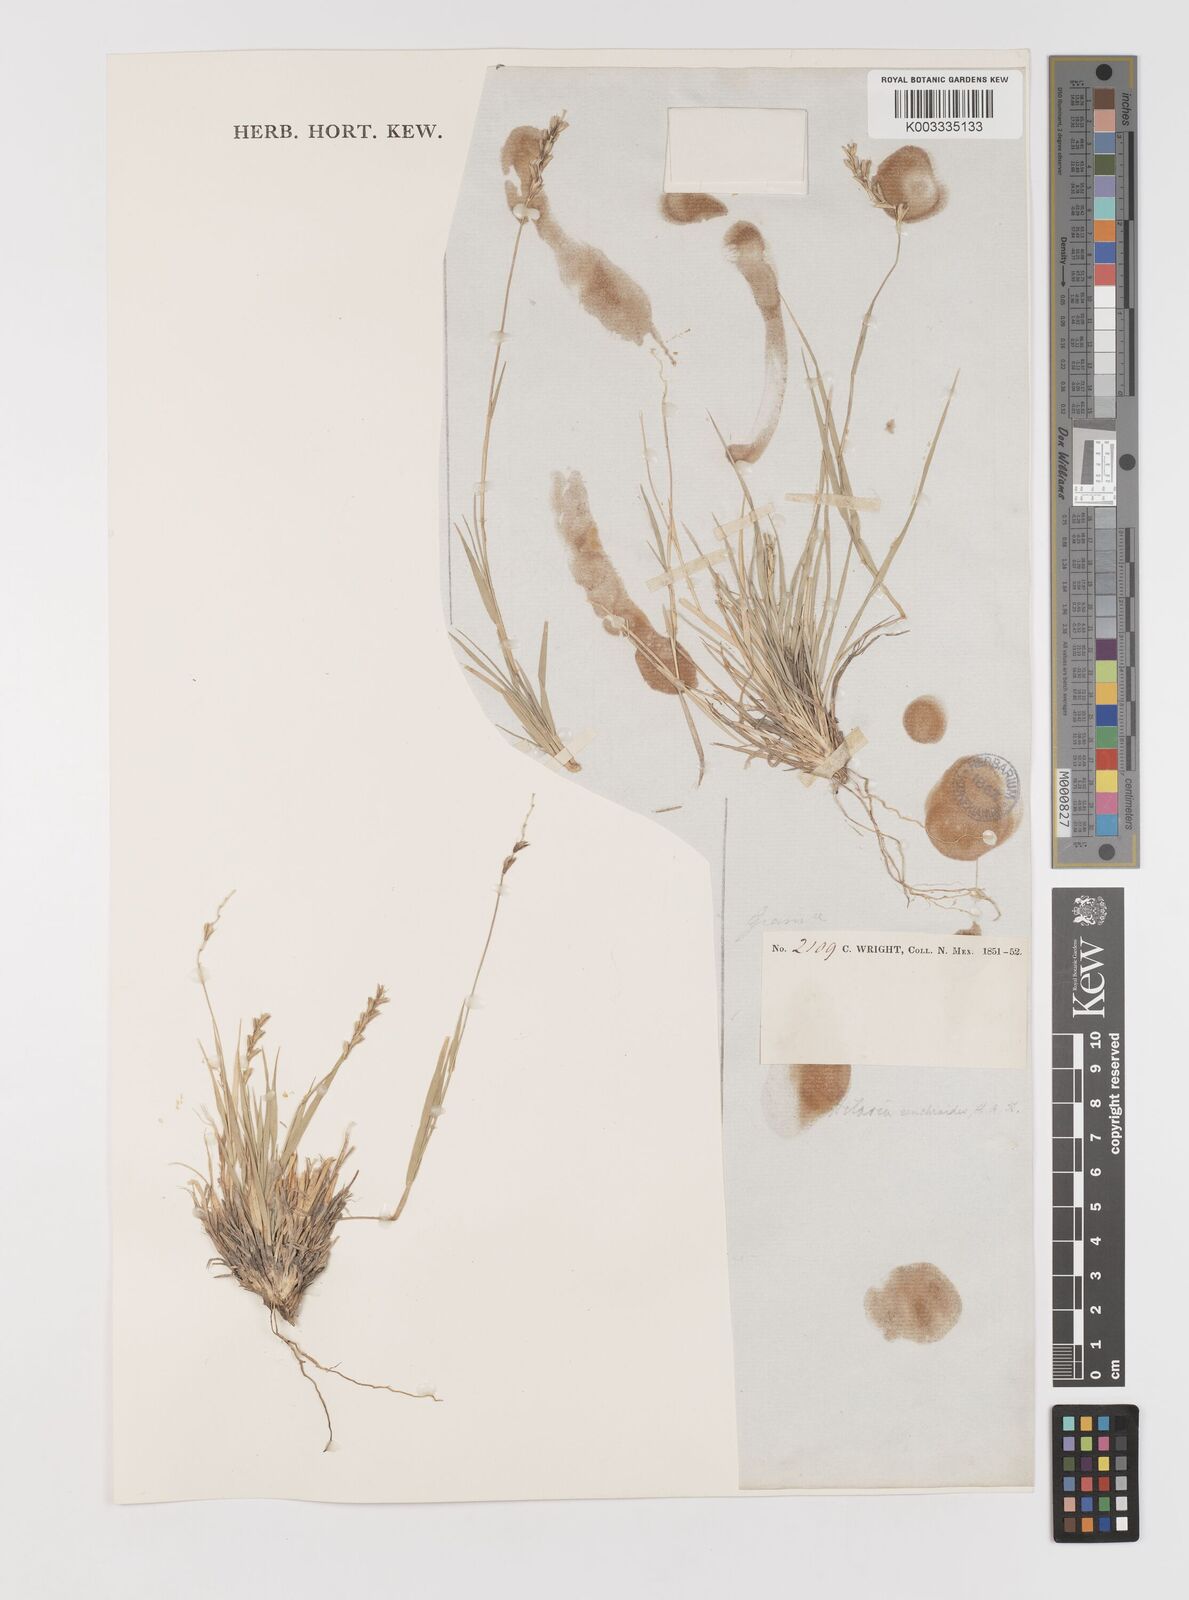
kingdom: Plantae
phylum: Tracheophyta
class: Liliopsida
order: Poales
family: Poaceae
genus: Hilaria
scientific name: Hilaria cenchroides
